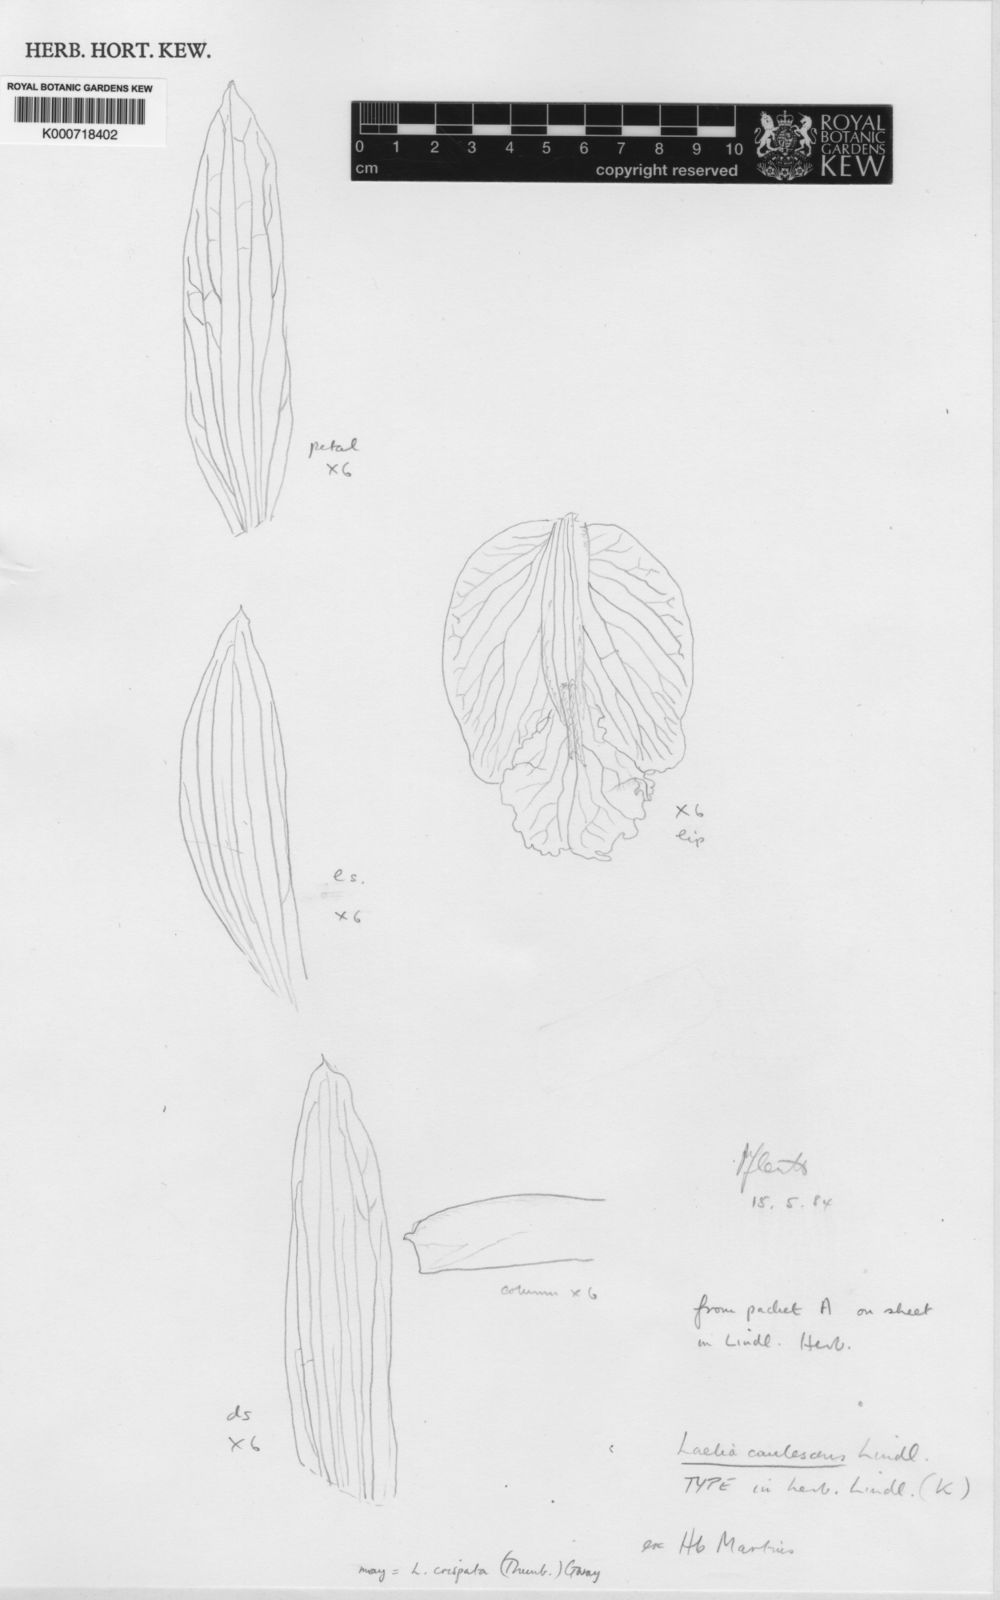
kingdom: Plantae
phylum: Tracheophyta
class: Liliopsida
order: Asparagales
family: Orchidaceae
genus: Cattleya
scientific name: Cattleya caulescens
